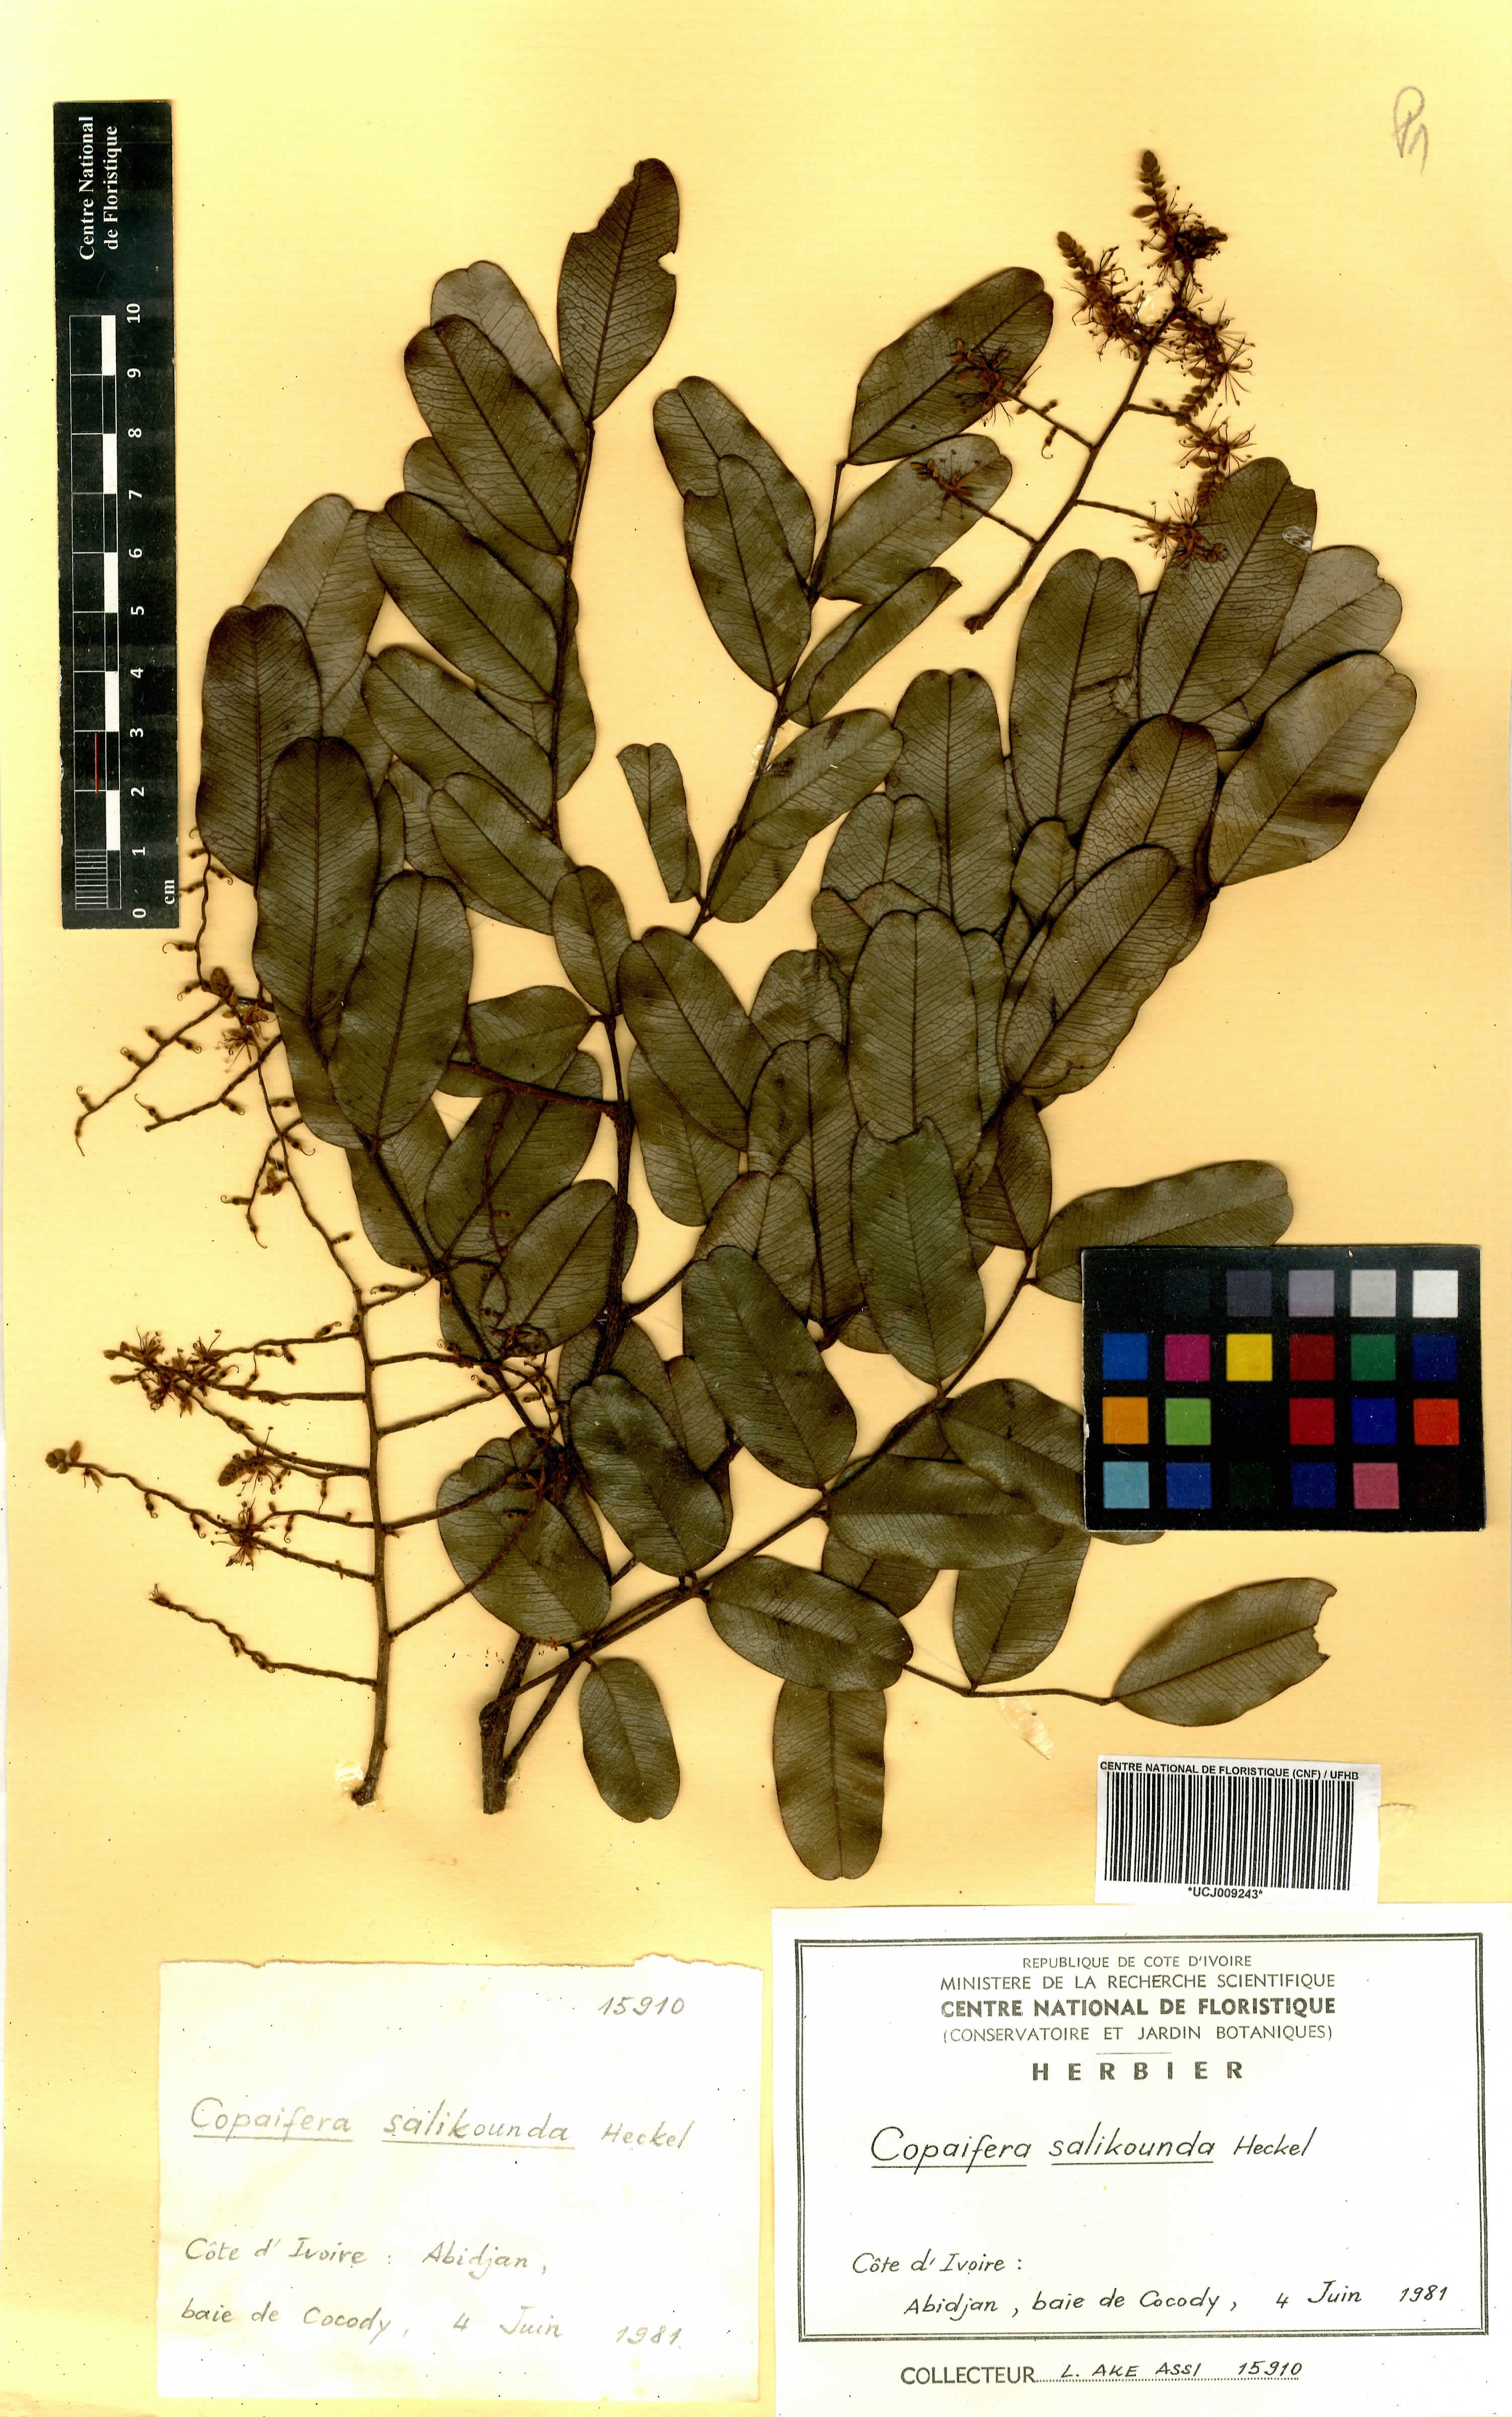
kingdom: Plantae
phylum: Tracheophyta
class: Magnoliopsida
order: Fabales
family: Fabaceae
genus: Copaifera
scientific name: Copaifera salikounda
